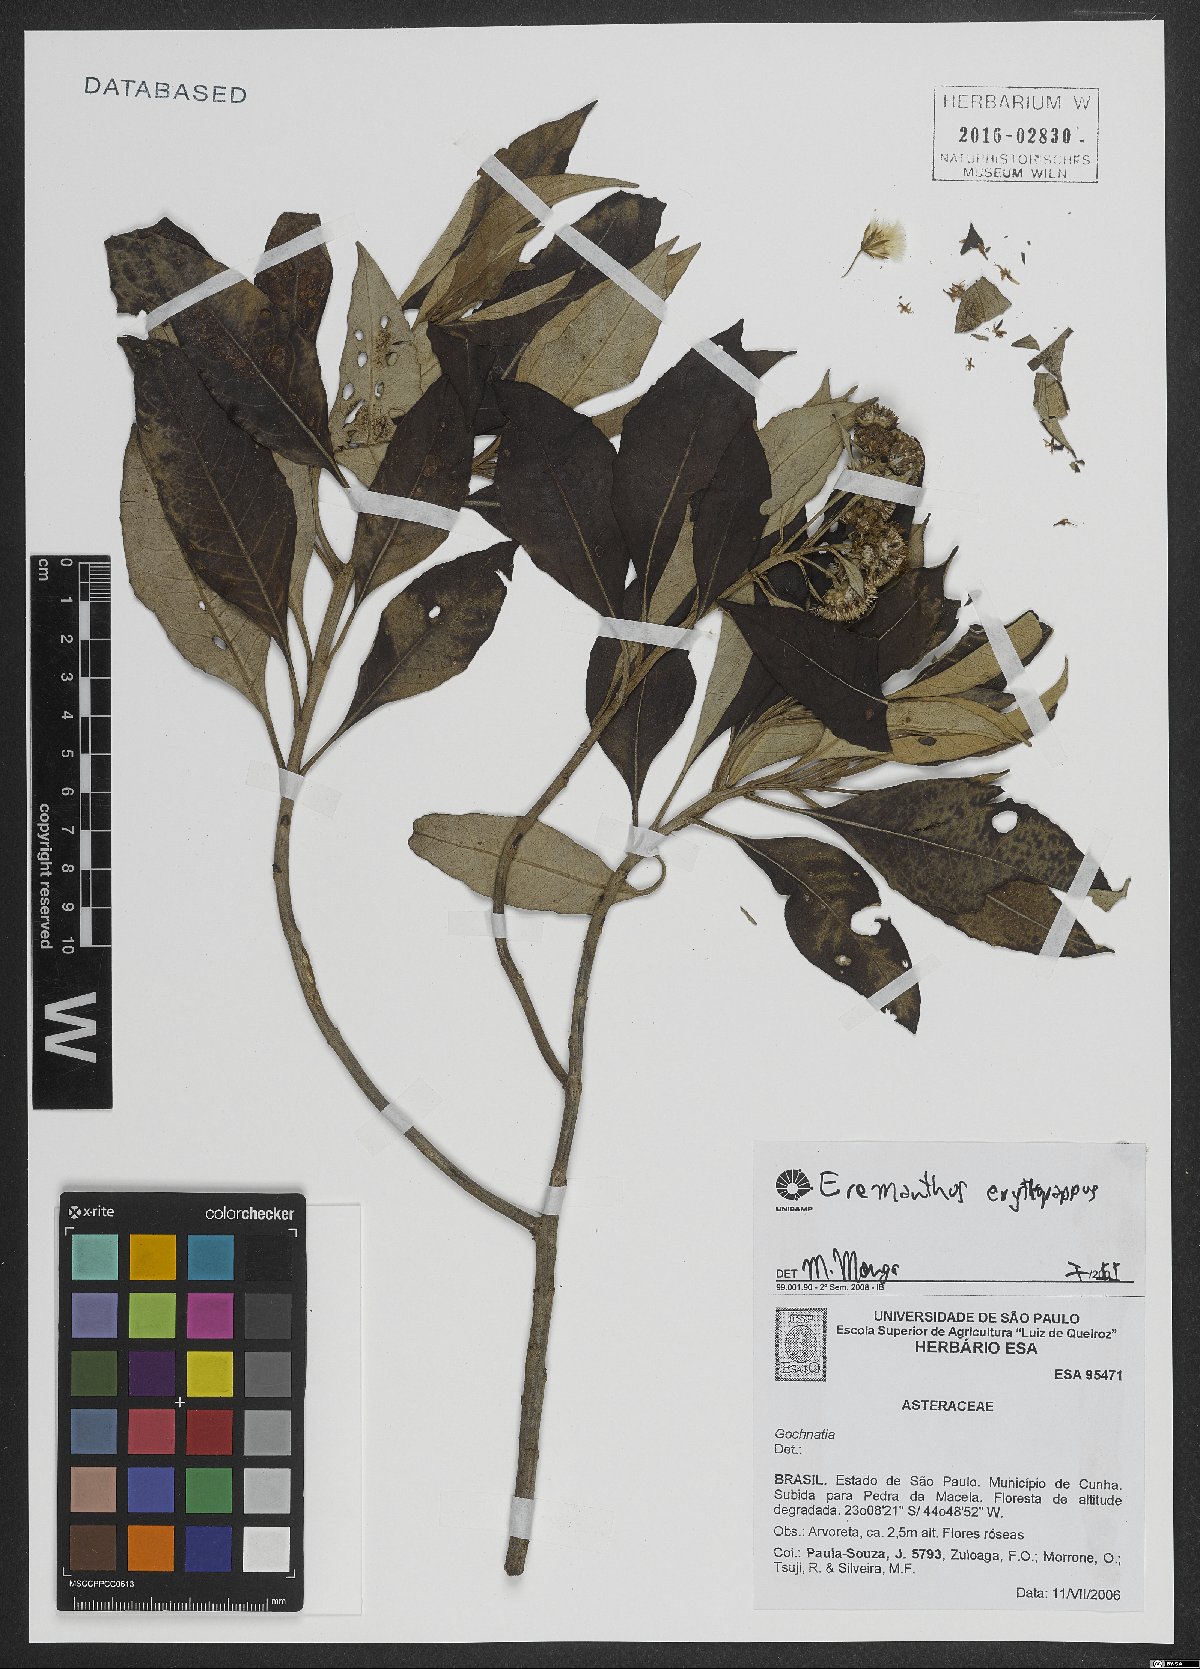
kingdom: Plantae
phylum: Tracheophyta
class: Magnoliopsida
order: Asterales
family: Asteraceae
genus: Eremanthus
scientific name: Eremanthus erythropappus
